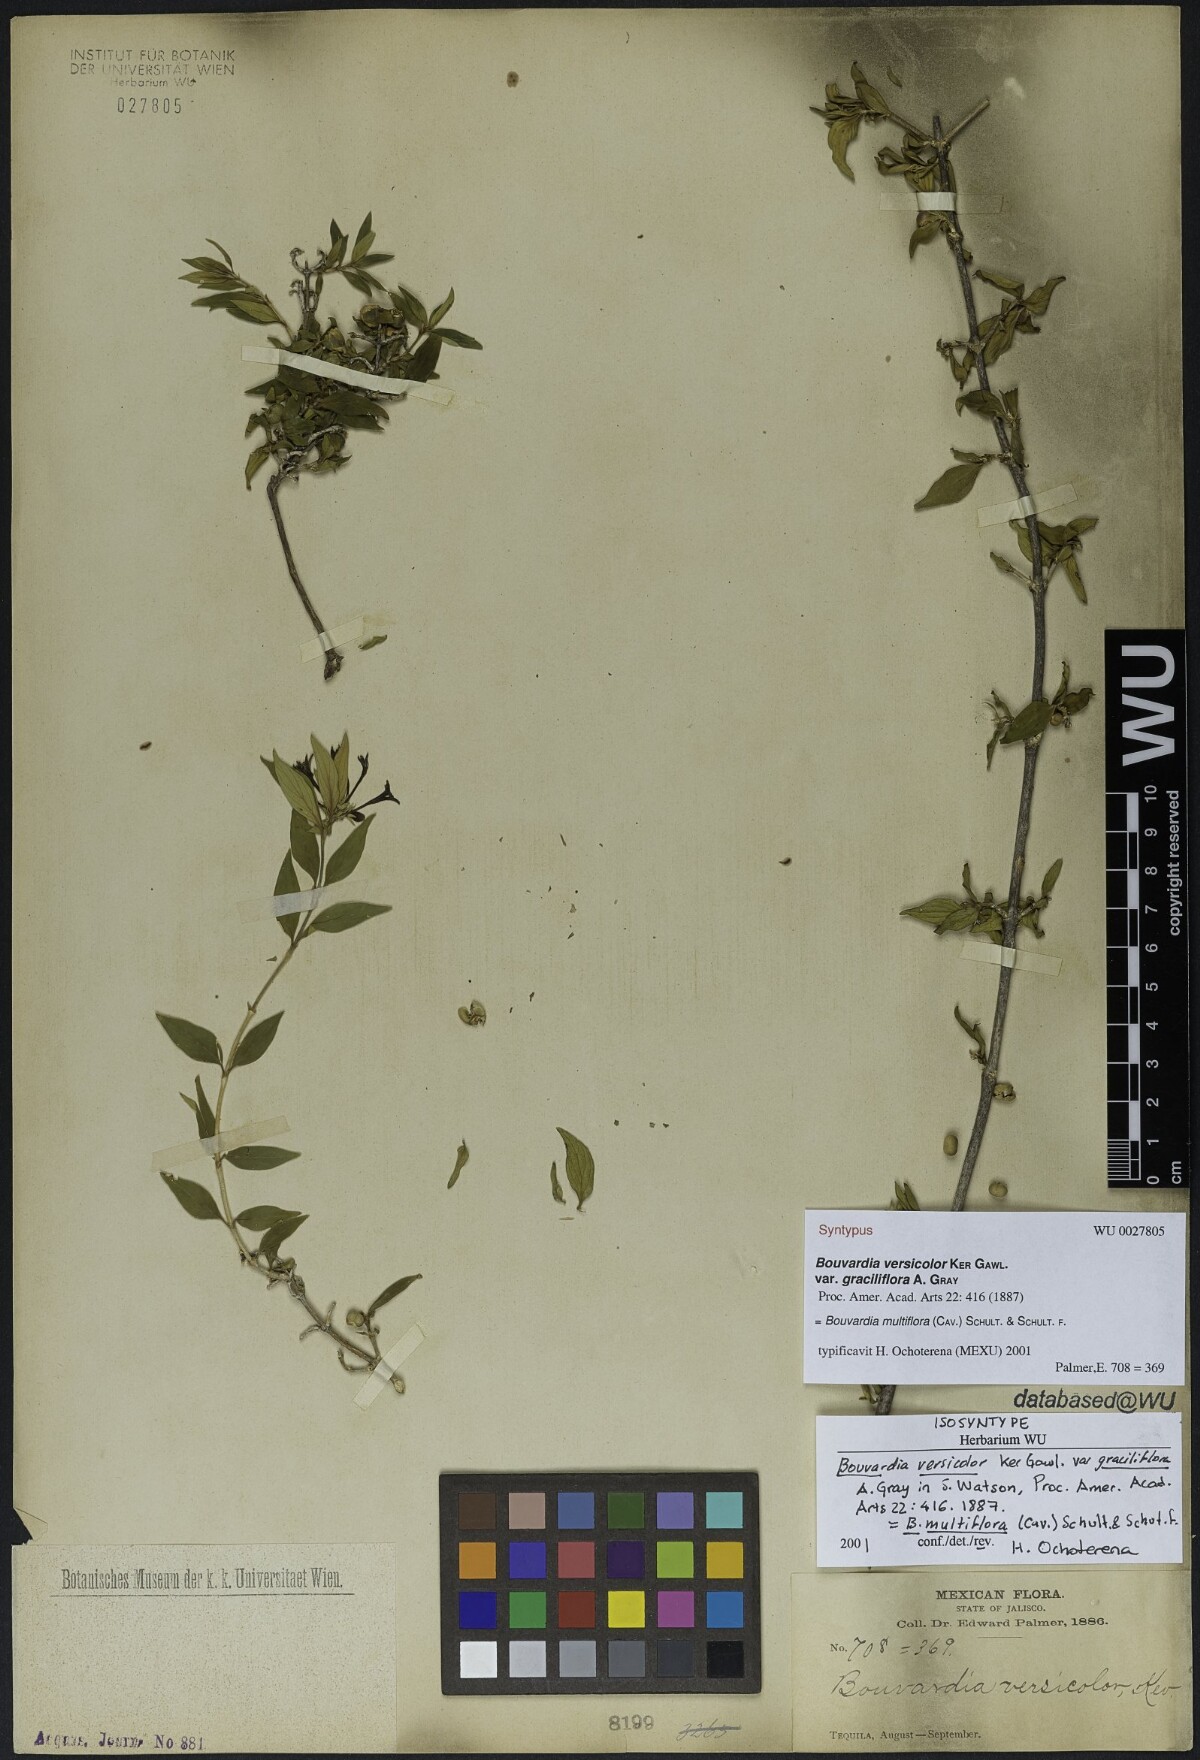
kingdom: Plantae
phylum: Tracheophyta
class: Magnoliopsida
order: Gentianales
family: Rubiaceae
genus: Bouvardia
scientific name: Bouvardia multiflora
